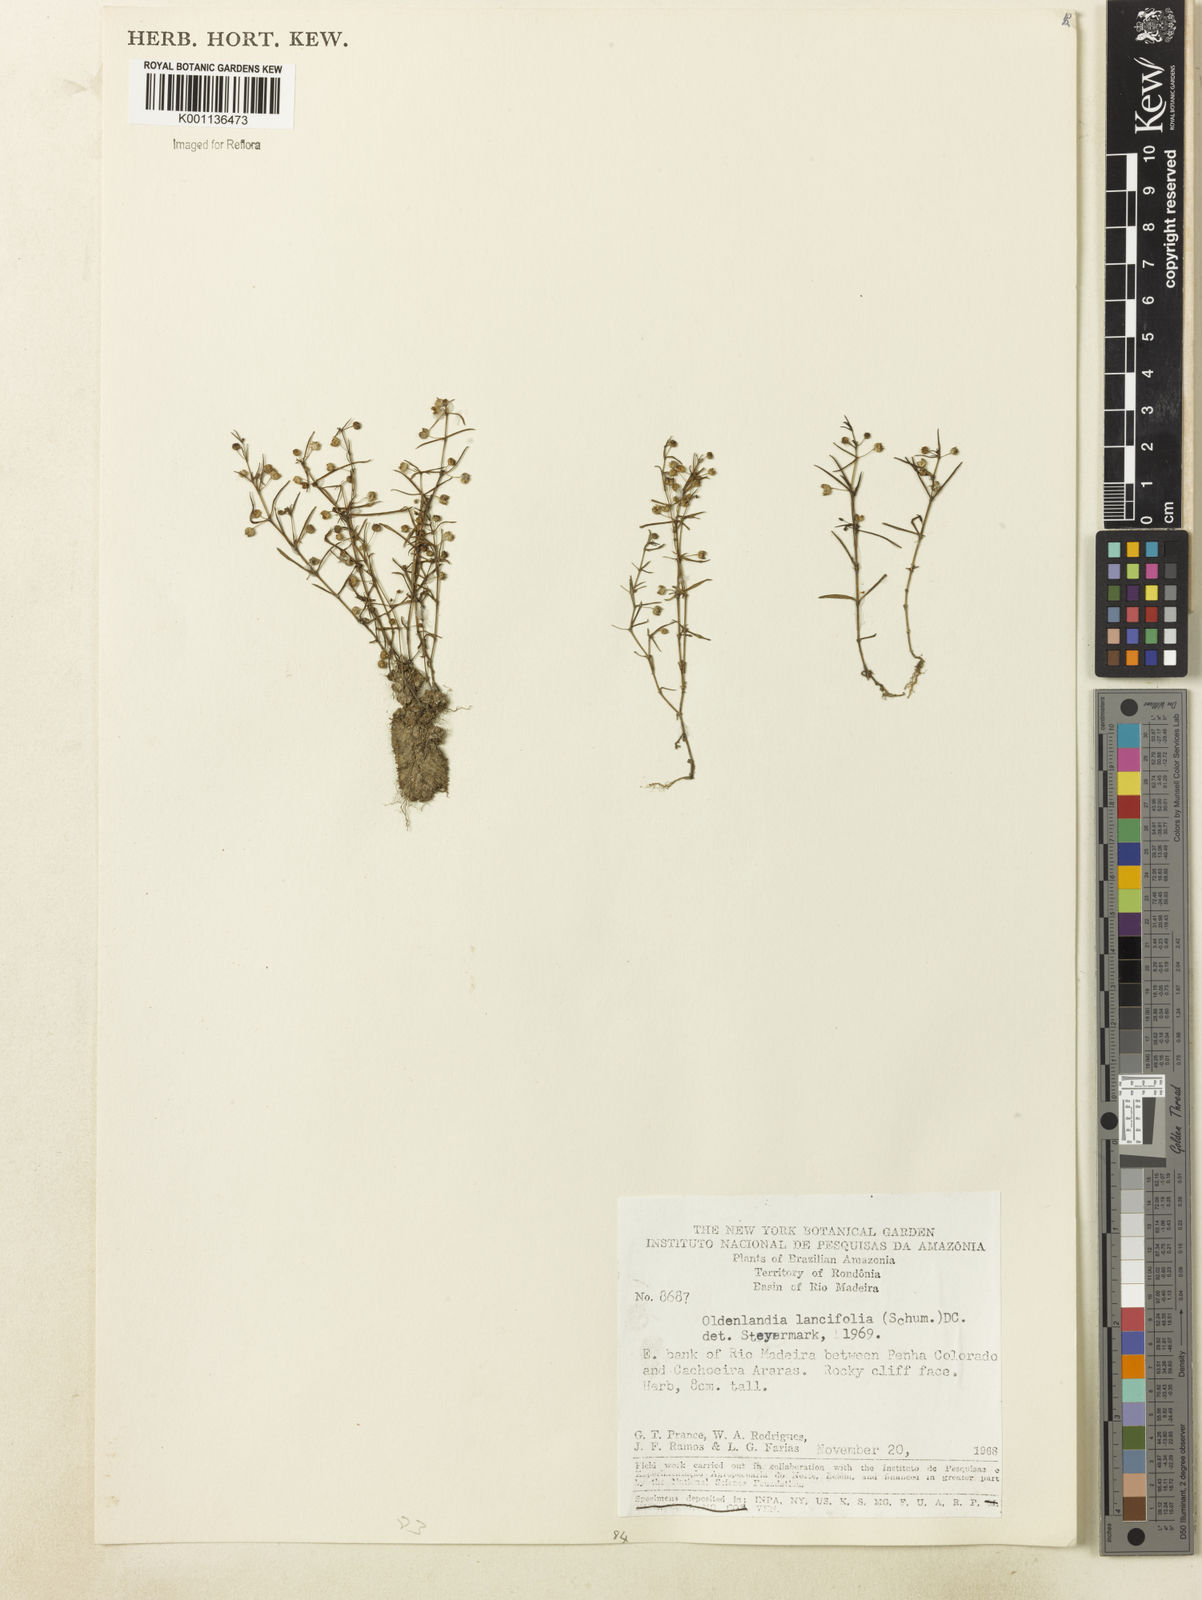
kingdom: Plantae
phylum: Tracheophyta
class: Magnoliopsida
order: Gentianales
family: Rubiaceae
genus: Oldenlandia
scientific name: Oldenlandia lancifolia
